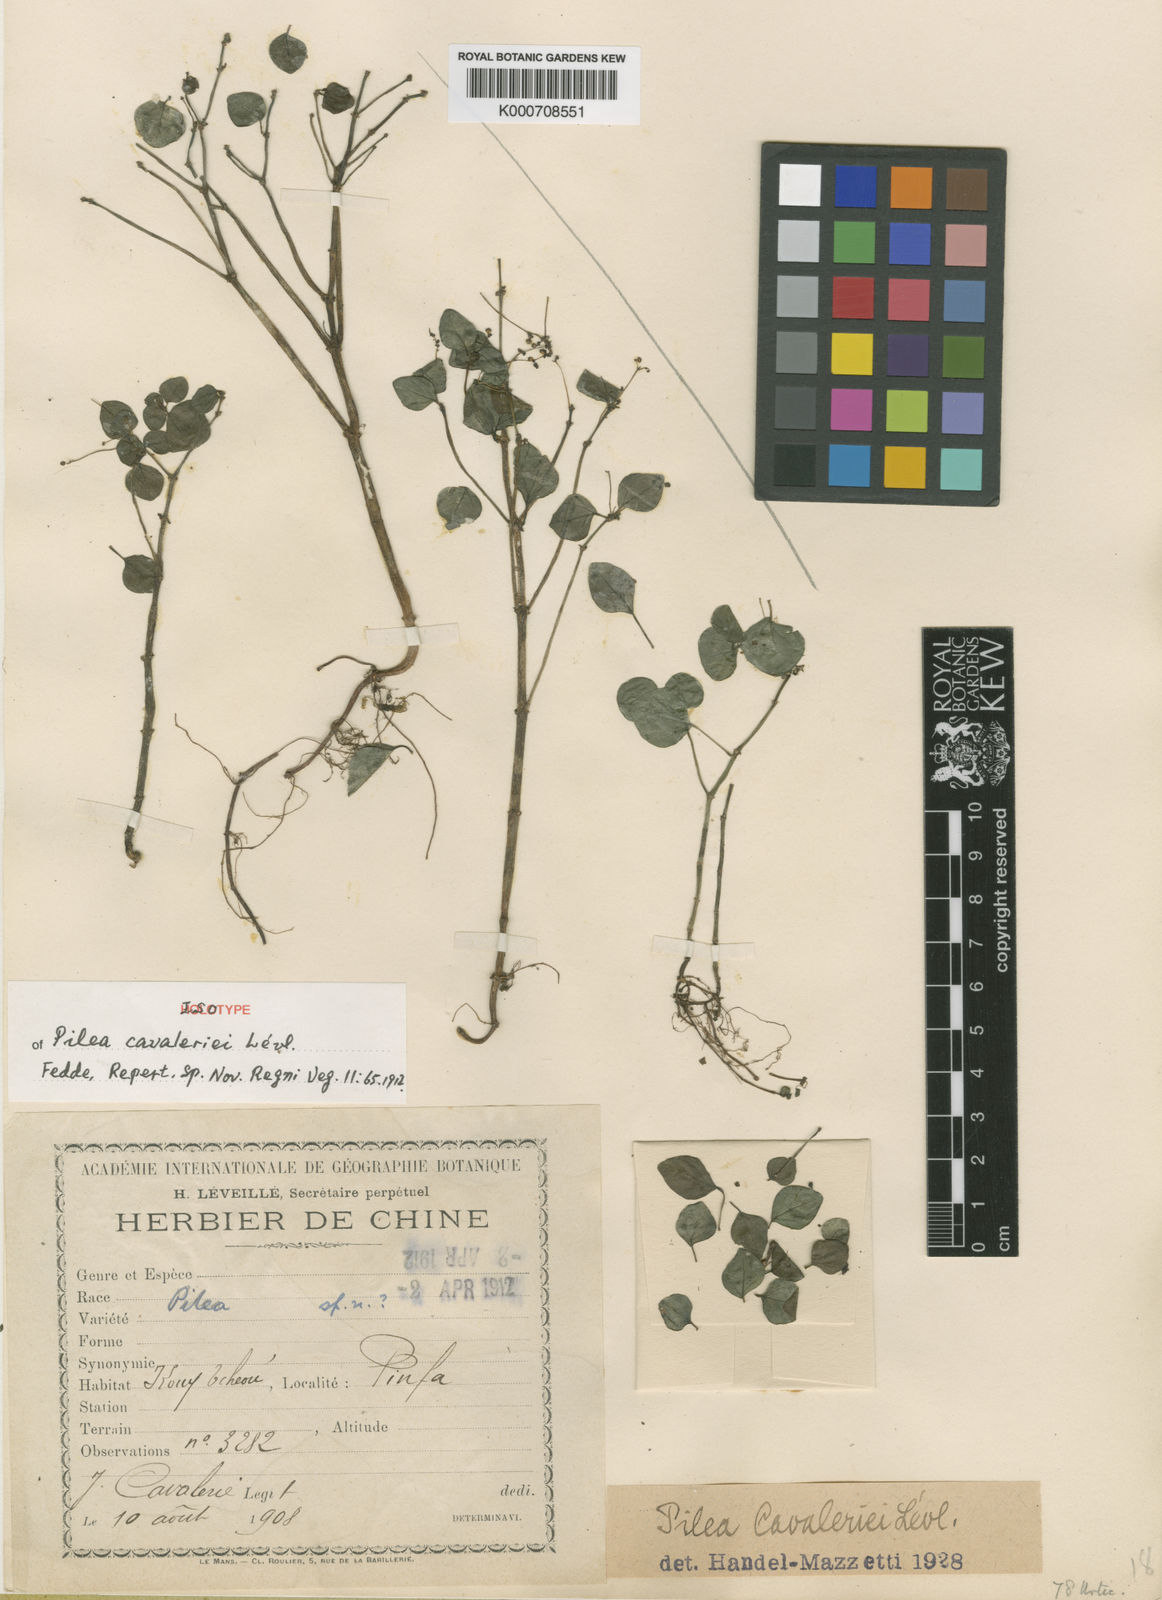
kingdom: Plantae
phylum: Tracheophyta
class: Magnoliopsida
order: Rosales
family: Urticaceae
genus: Pilea
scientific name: Pilea
